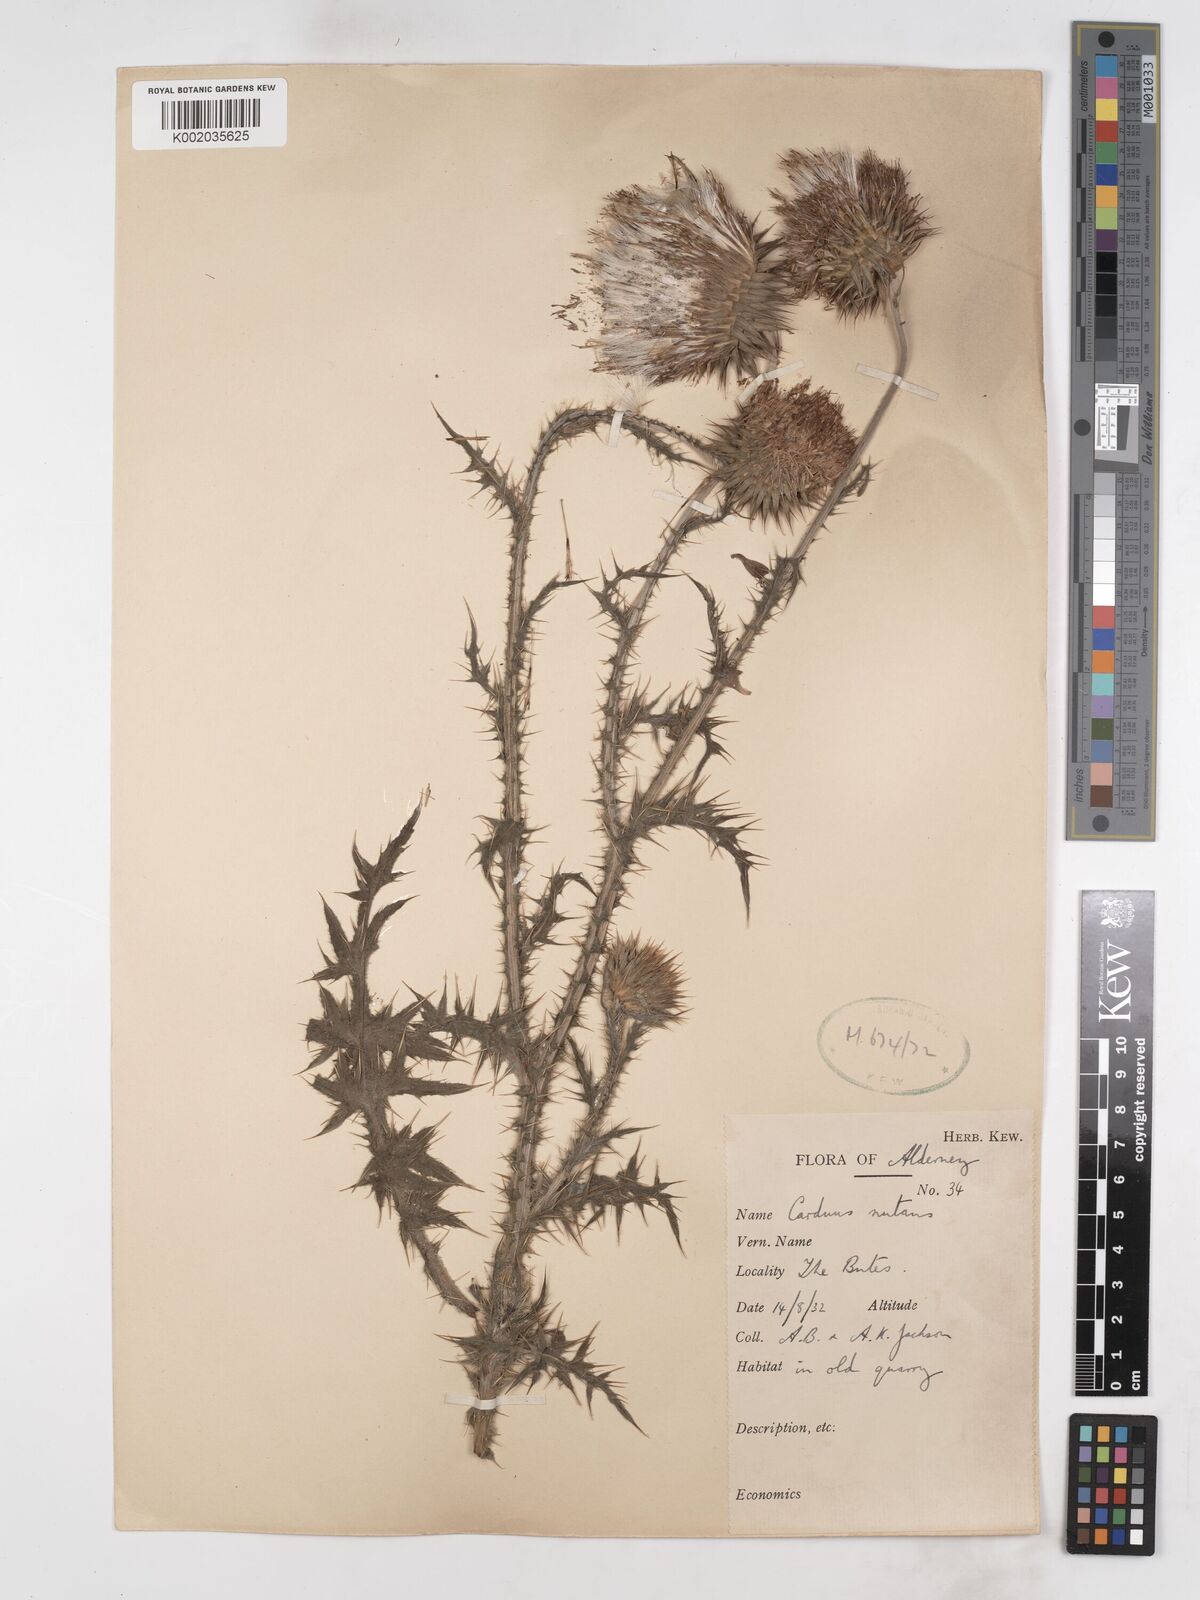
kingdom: Plantae
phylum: Tracheophyta
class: Magnoliopsida
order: Asterales
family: Asteraceae
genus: Carduus
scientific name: Carduus nutans
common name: Musk thistle
